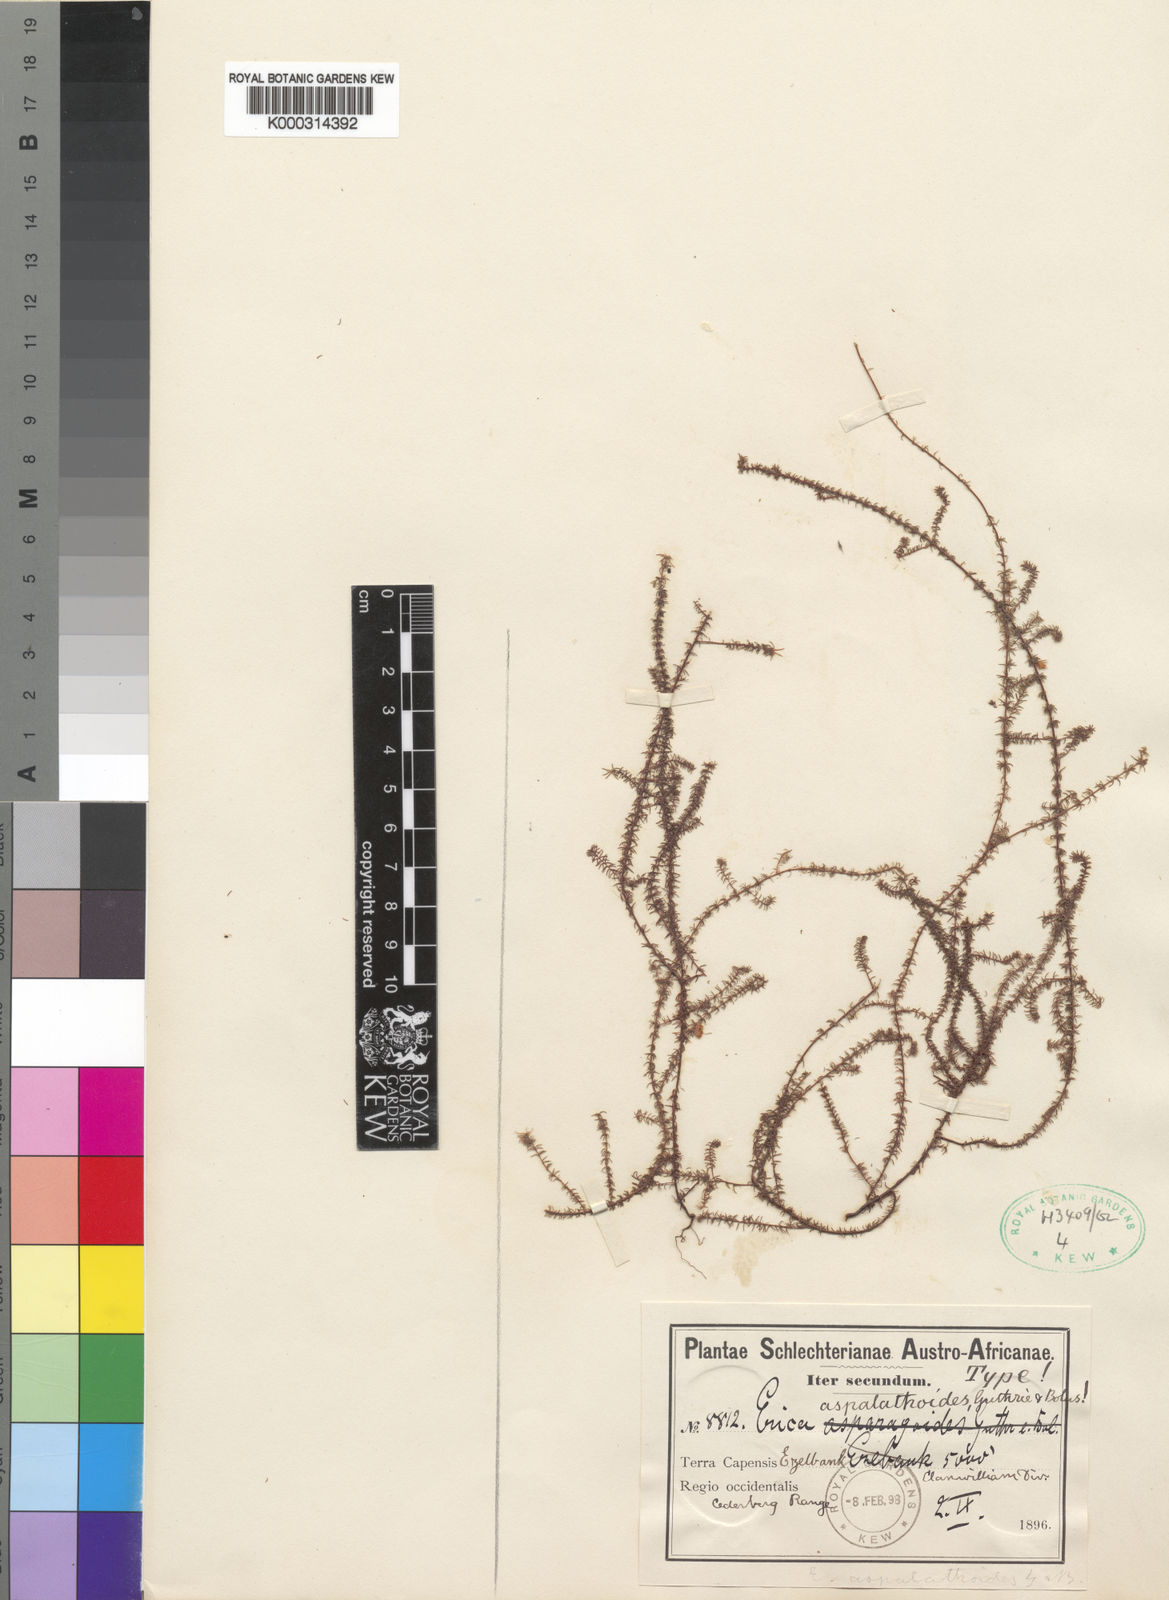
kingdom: Plantae
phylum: Tracheophyta
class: Magnoliopsida
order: Ericales
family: Ericaceae
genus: Erica
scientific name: Erica
